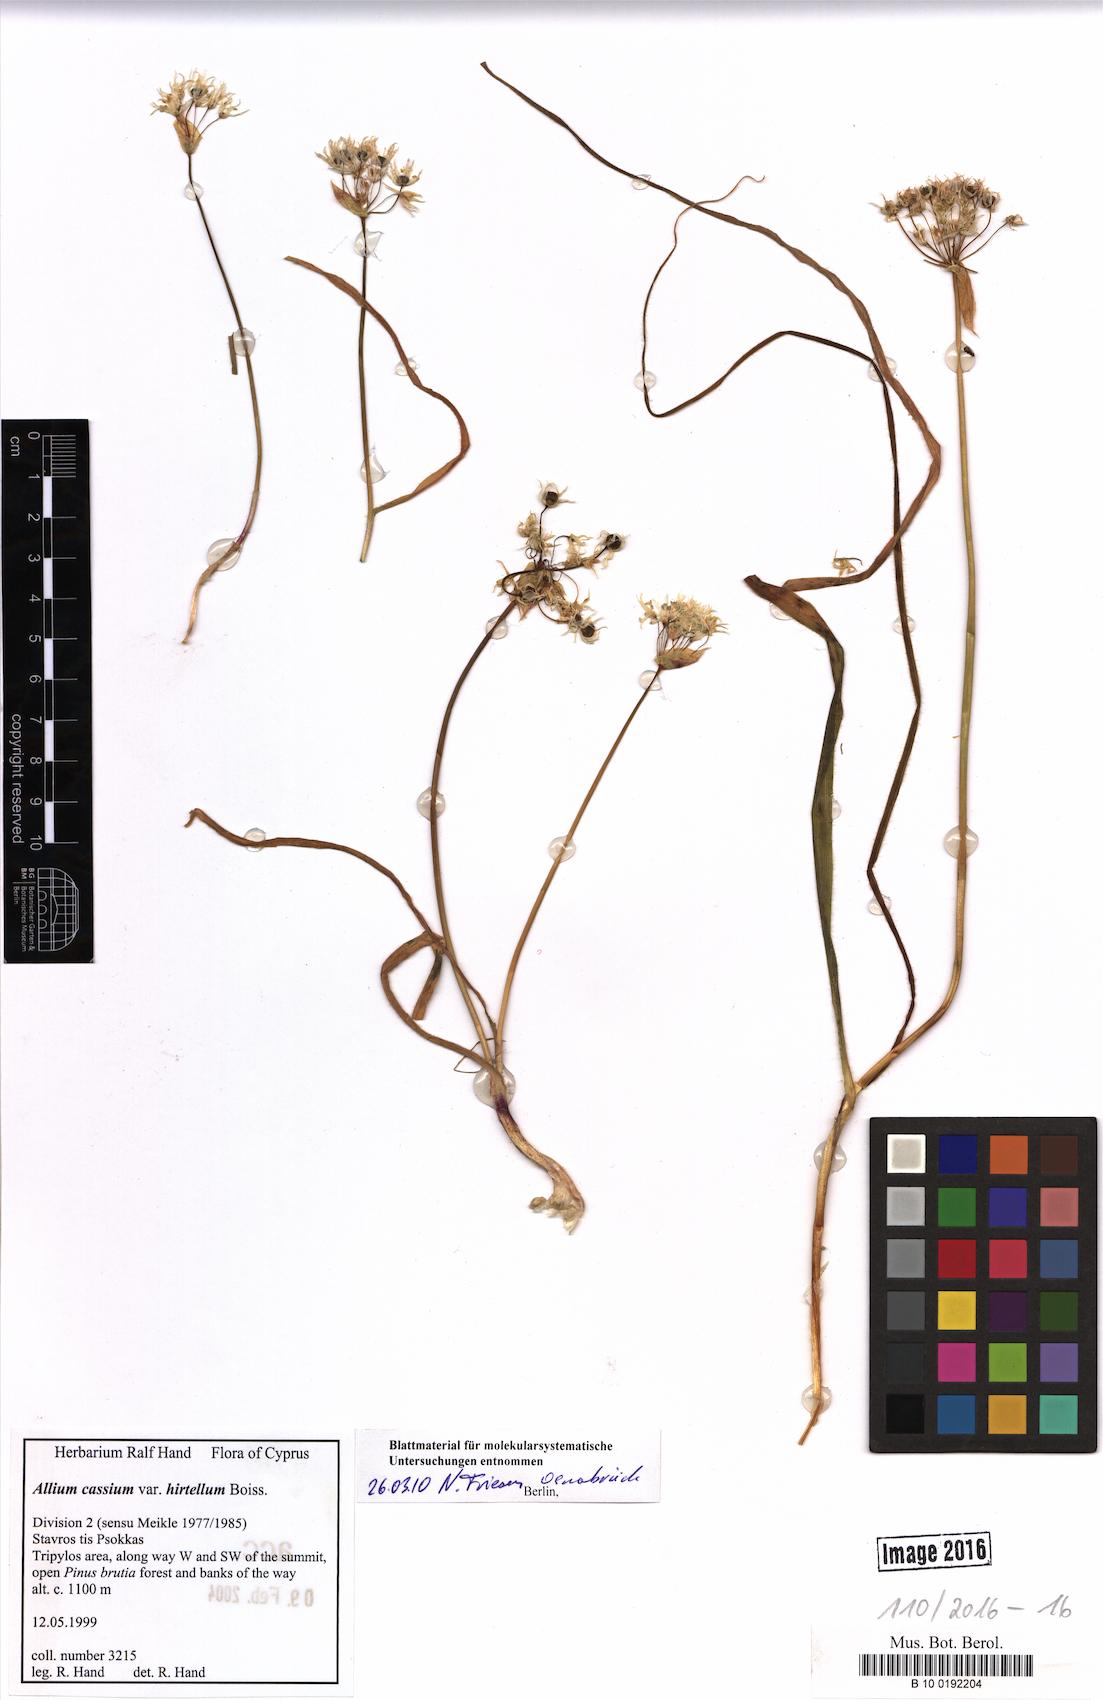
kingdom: Plantae
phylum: Tracheophyta
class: Liliopsida
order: Asparagales
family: Amaryllidaceae
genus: Allium
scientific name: Allium cassium
